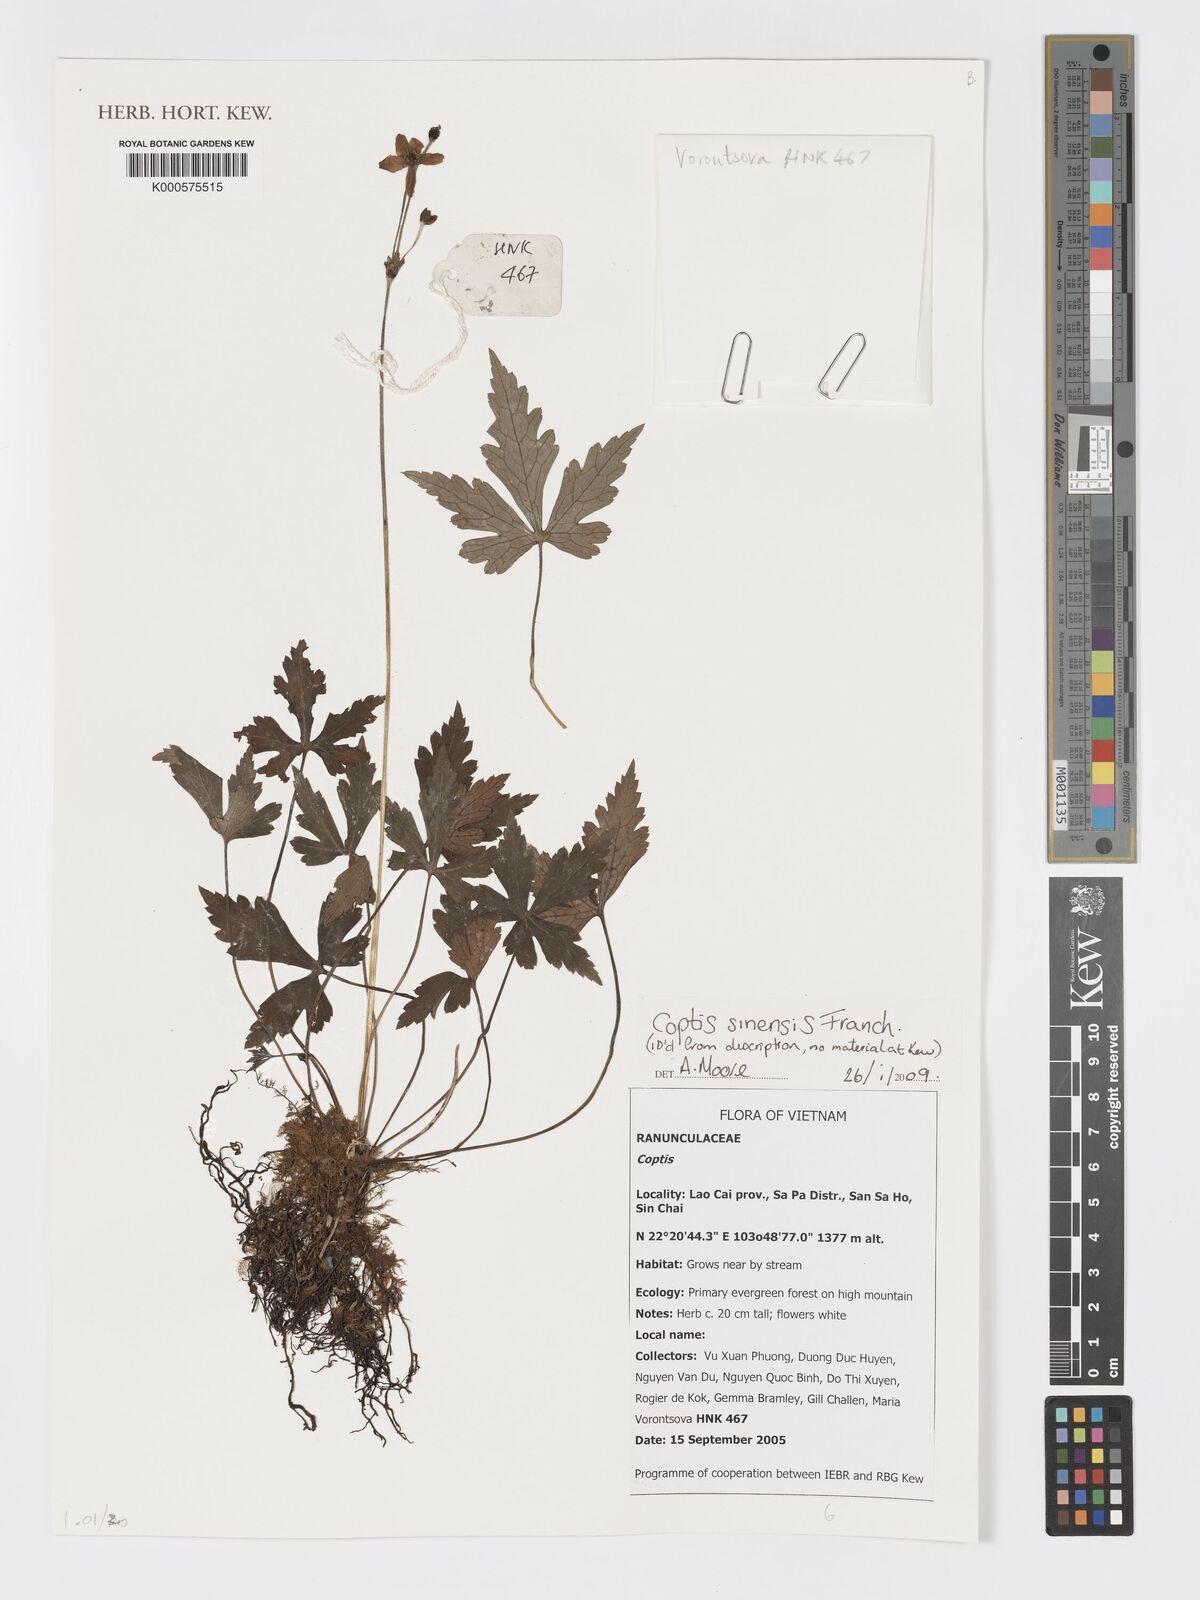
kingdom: Plantae
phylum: Tracheophyta
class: Magnoliopsida
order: Ranunculales
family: Ranunculaceae
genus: Coptis
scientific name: Coptis
